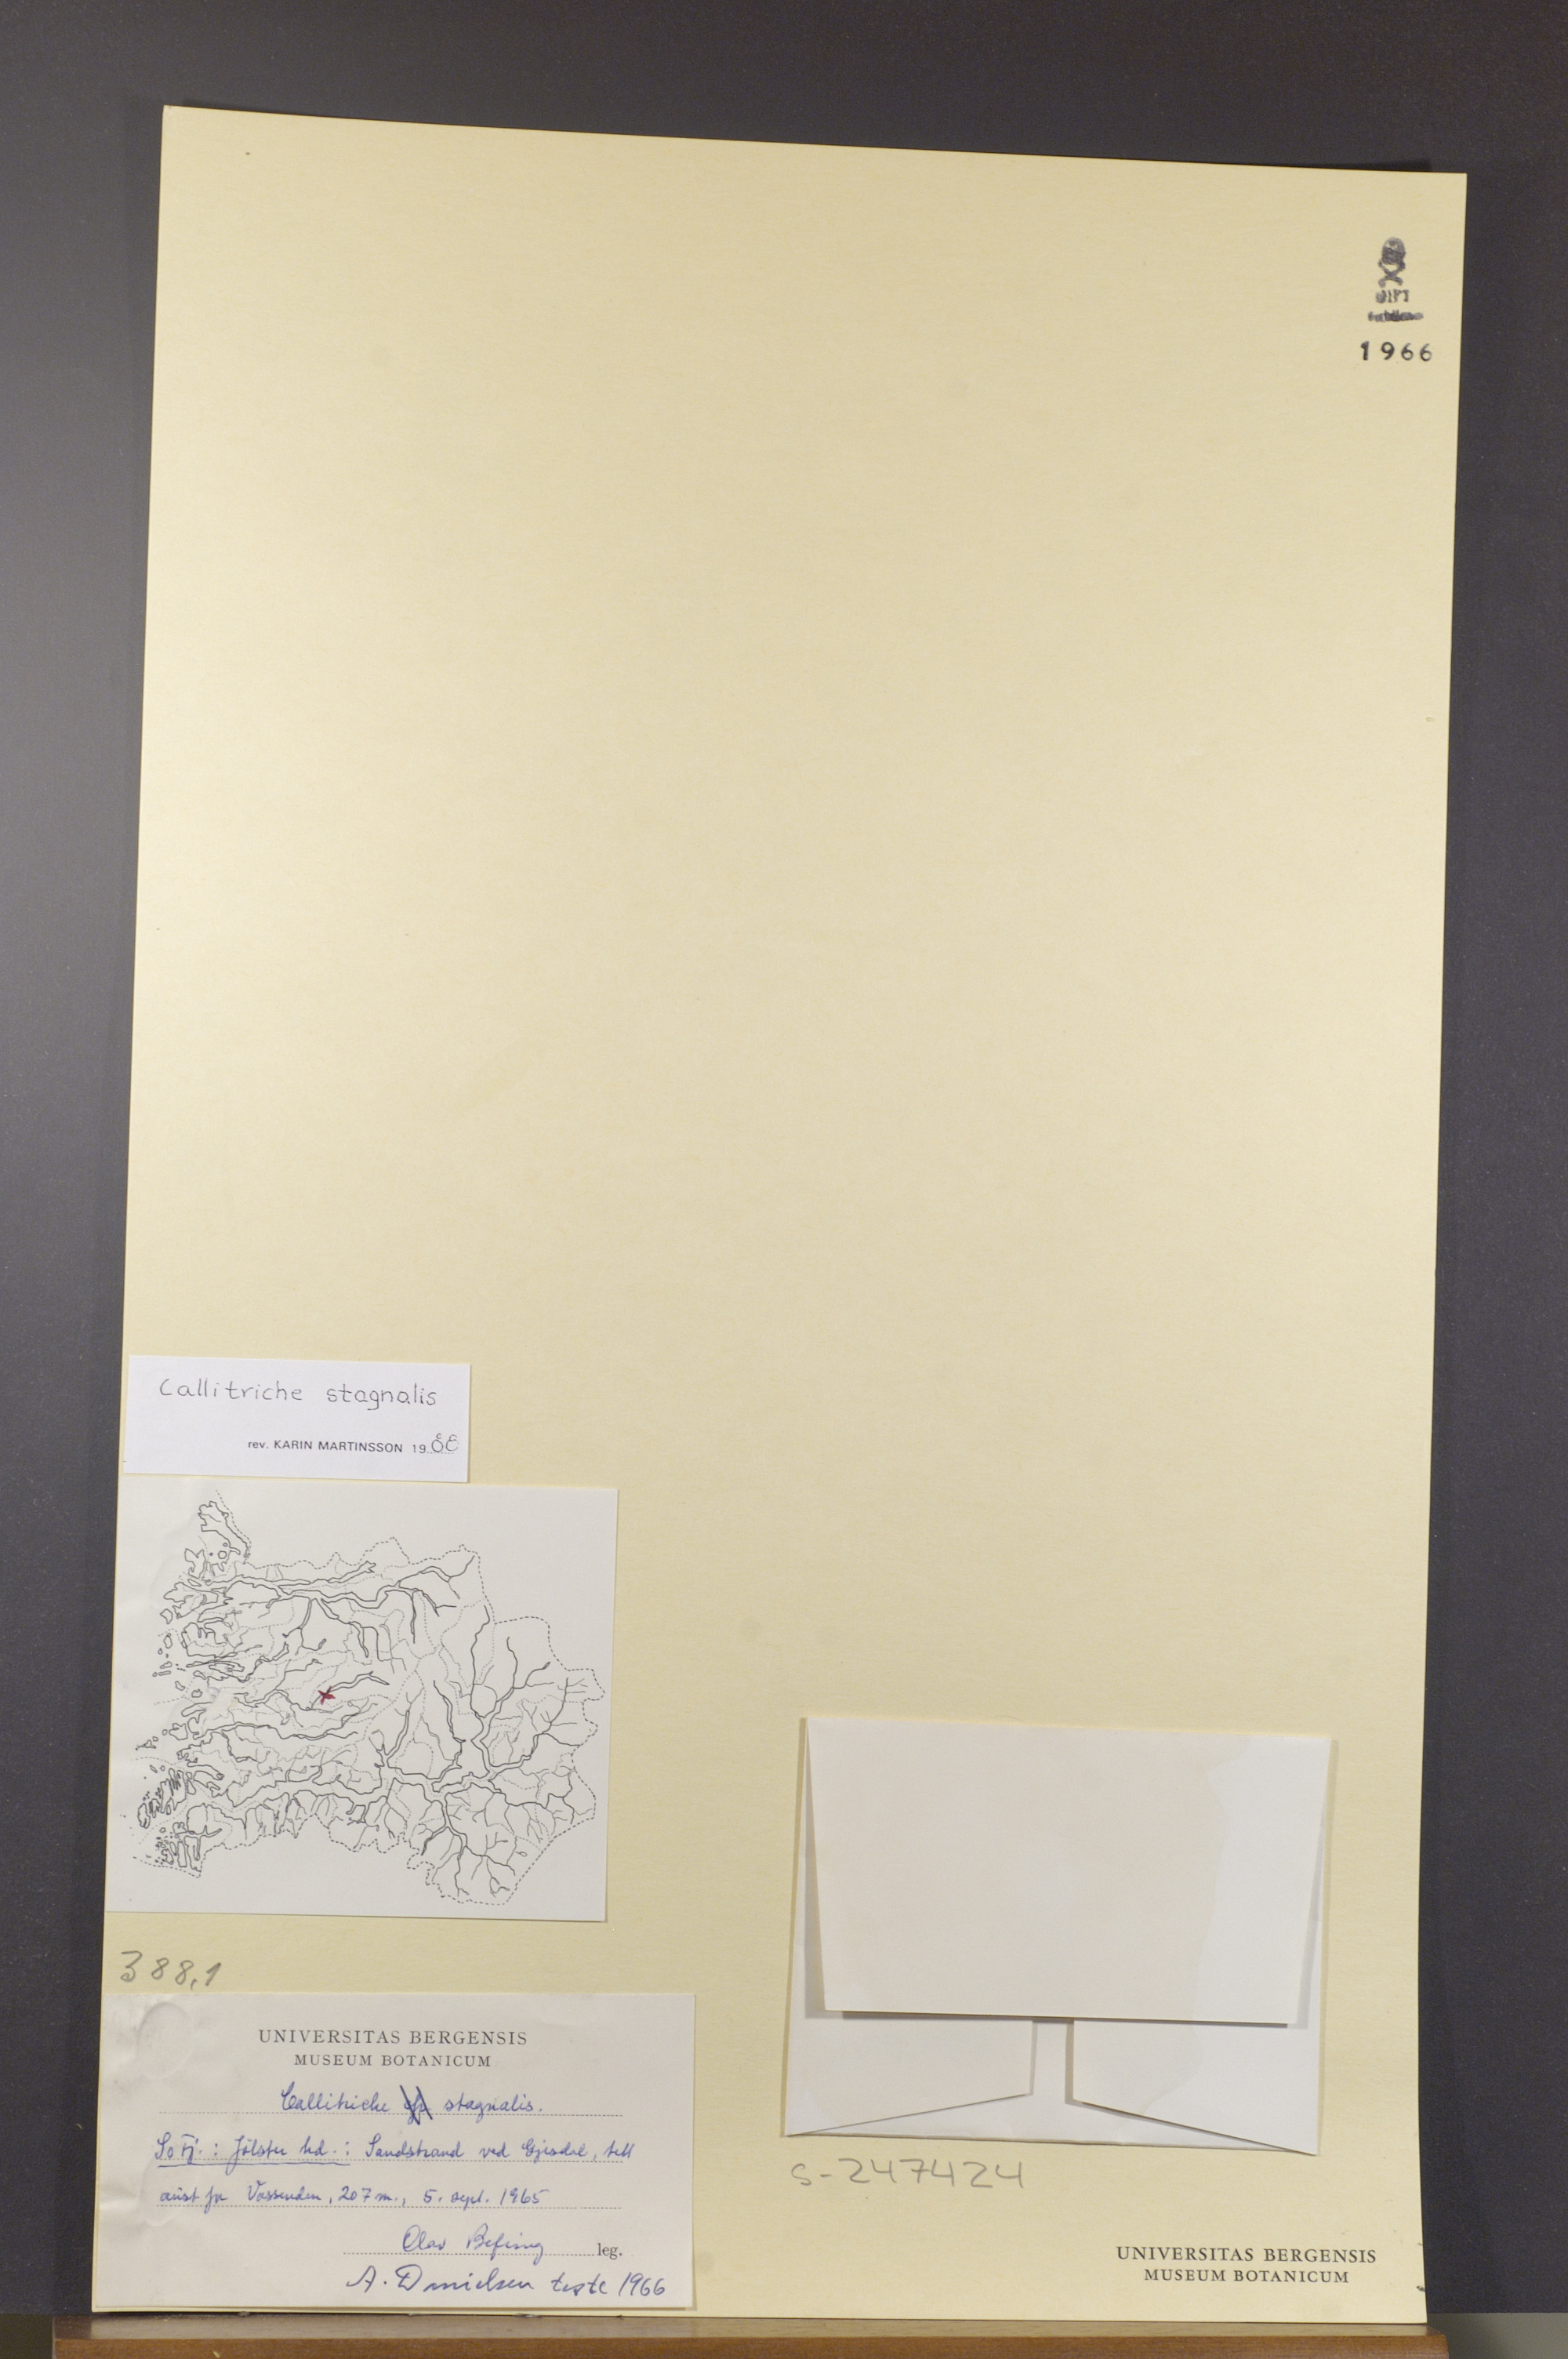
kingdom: Plantae
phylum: Tracheophyta
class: Magnoliopsida
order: Lamiales
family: Plantaginaceae
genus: Callitriche
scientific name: Callitriche stagnalis
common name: Common water-starwort
